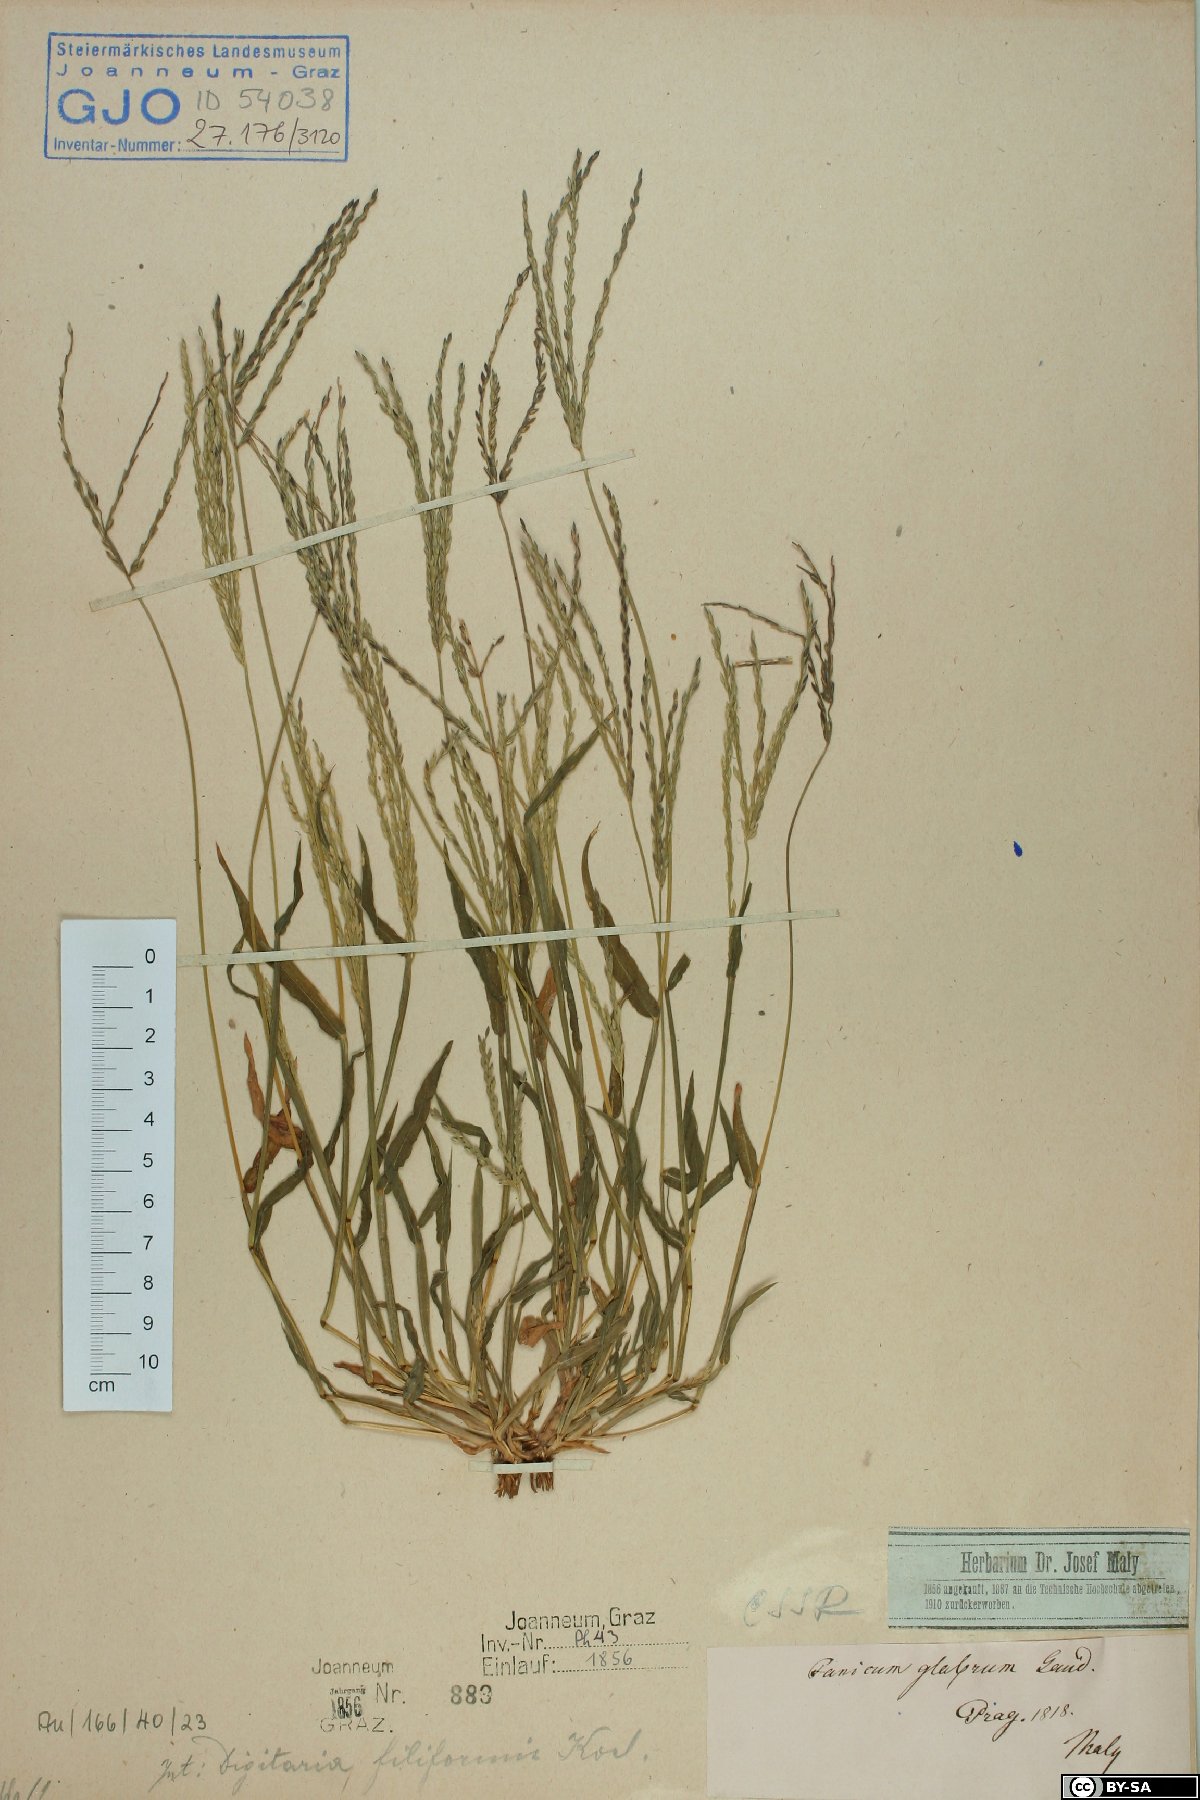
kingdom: Plantae
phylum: Tracheophyta
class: Liliopsida
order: Poales
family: Poaceae
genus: Digitaria
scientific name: Digitaria ischaemum
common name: Smooth crabgrass
